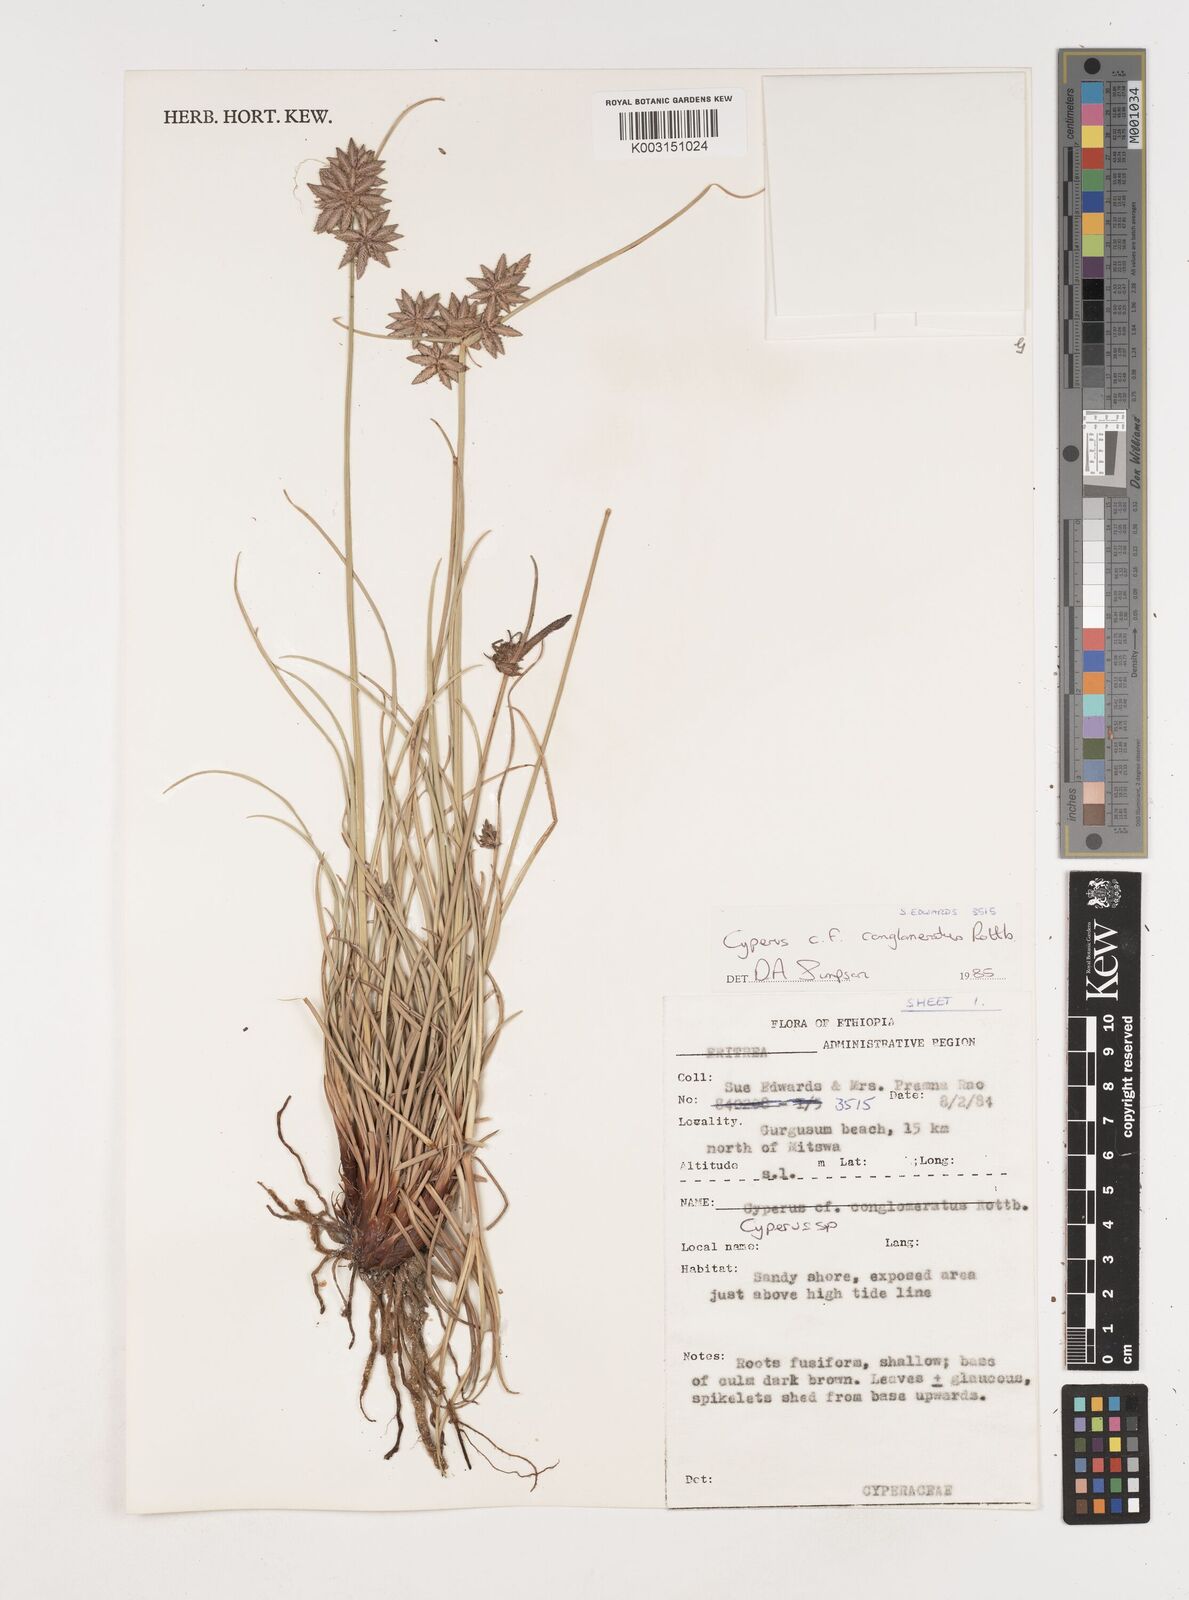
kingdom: Plantae
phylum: Tracheophyta
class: Liliopsida
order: Poales
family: Cyperaceae
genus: Cyperus
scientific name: Cyperus conglomeratus
